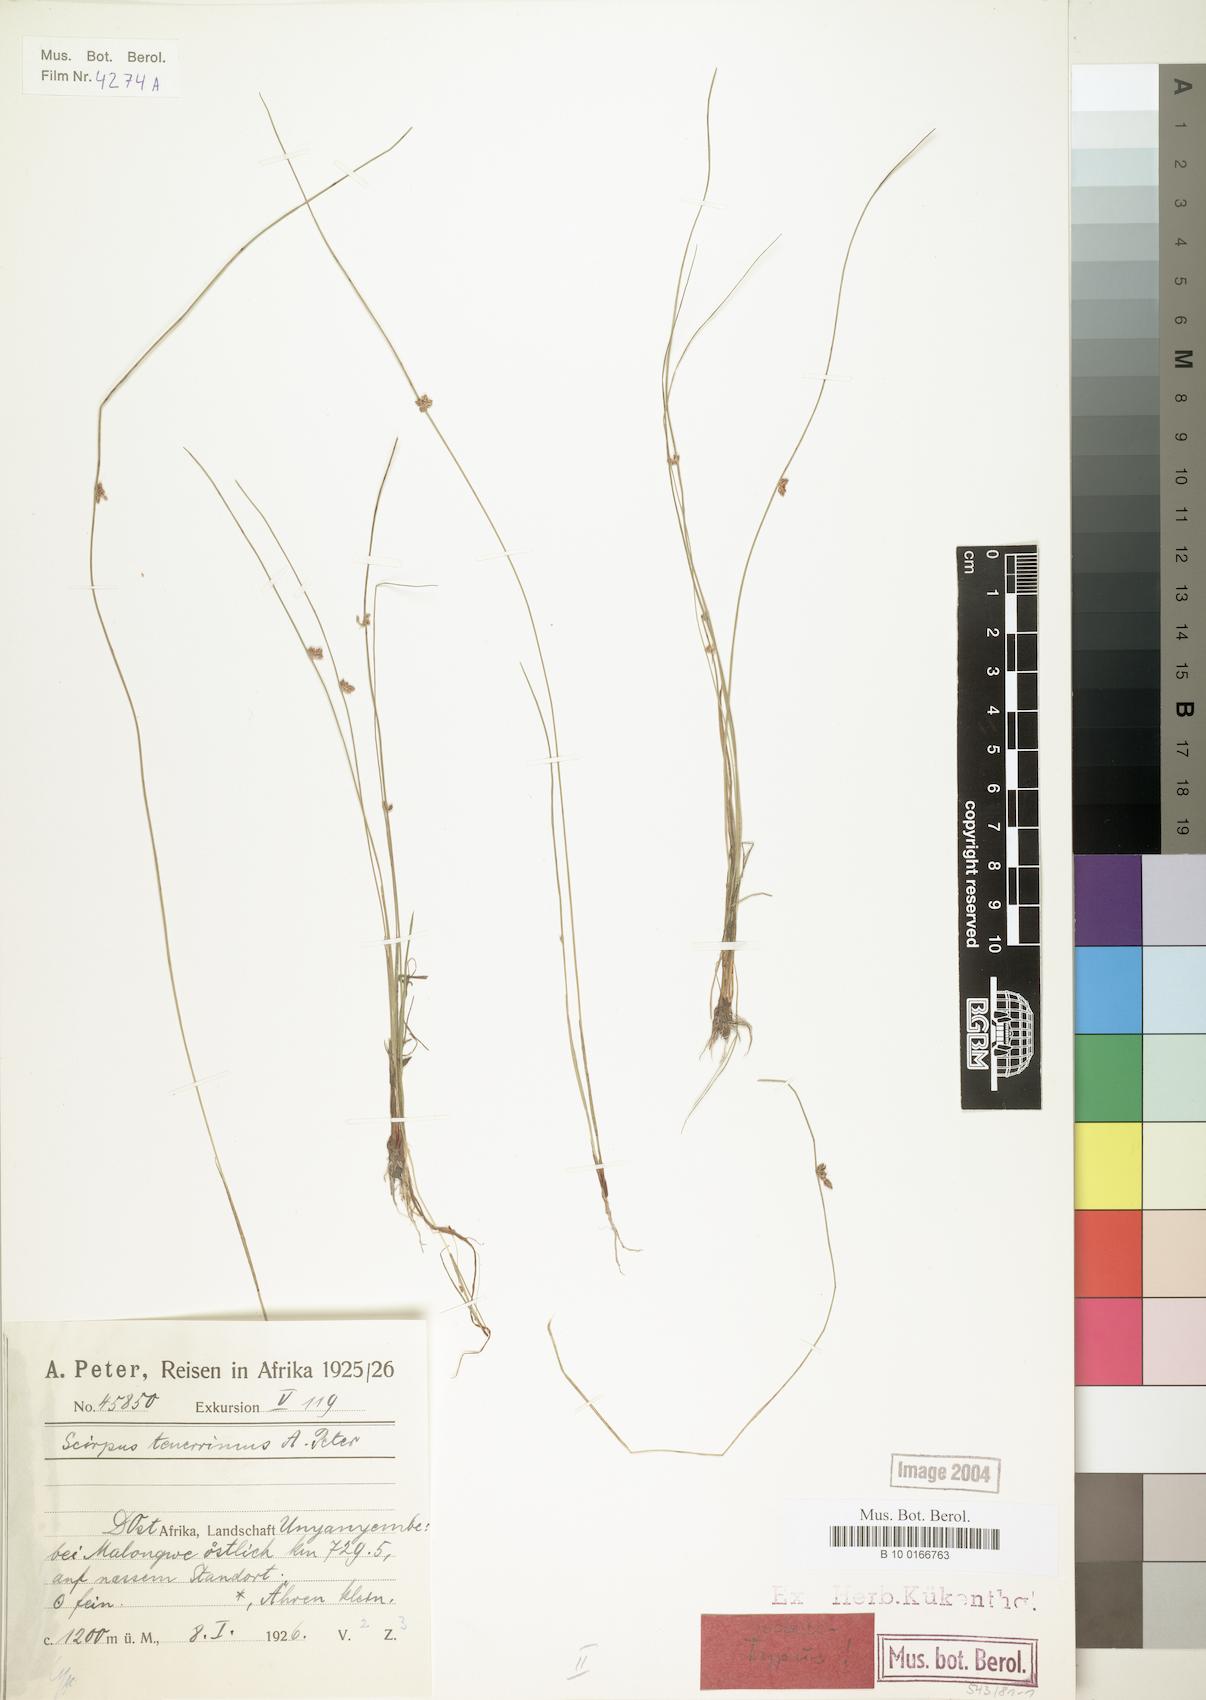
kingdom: Plantae
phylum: Tracheophyta
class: Liliopsida
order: Poales
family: Cyperaceae
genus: Schoenoplectiella
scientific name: Schoenoplectiella microglumis
